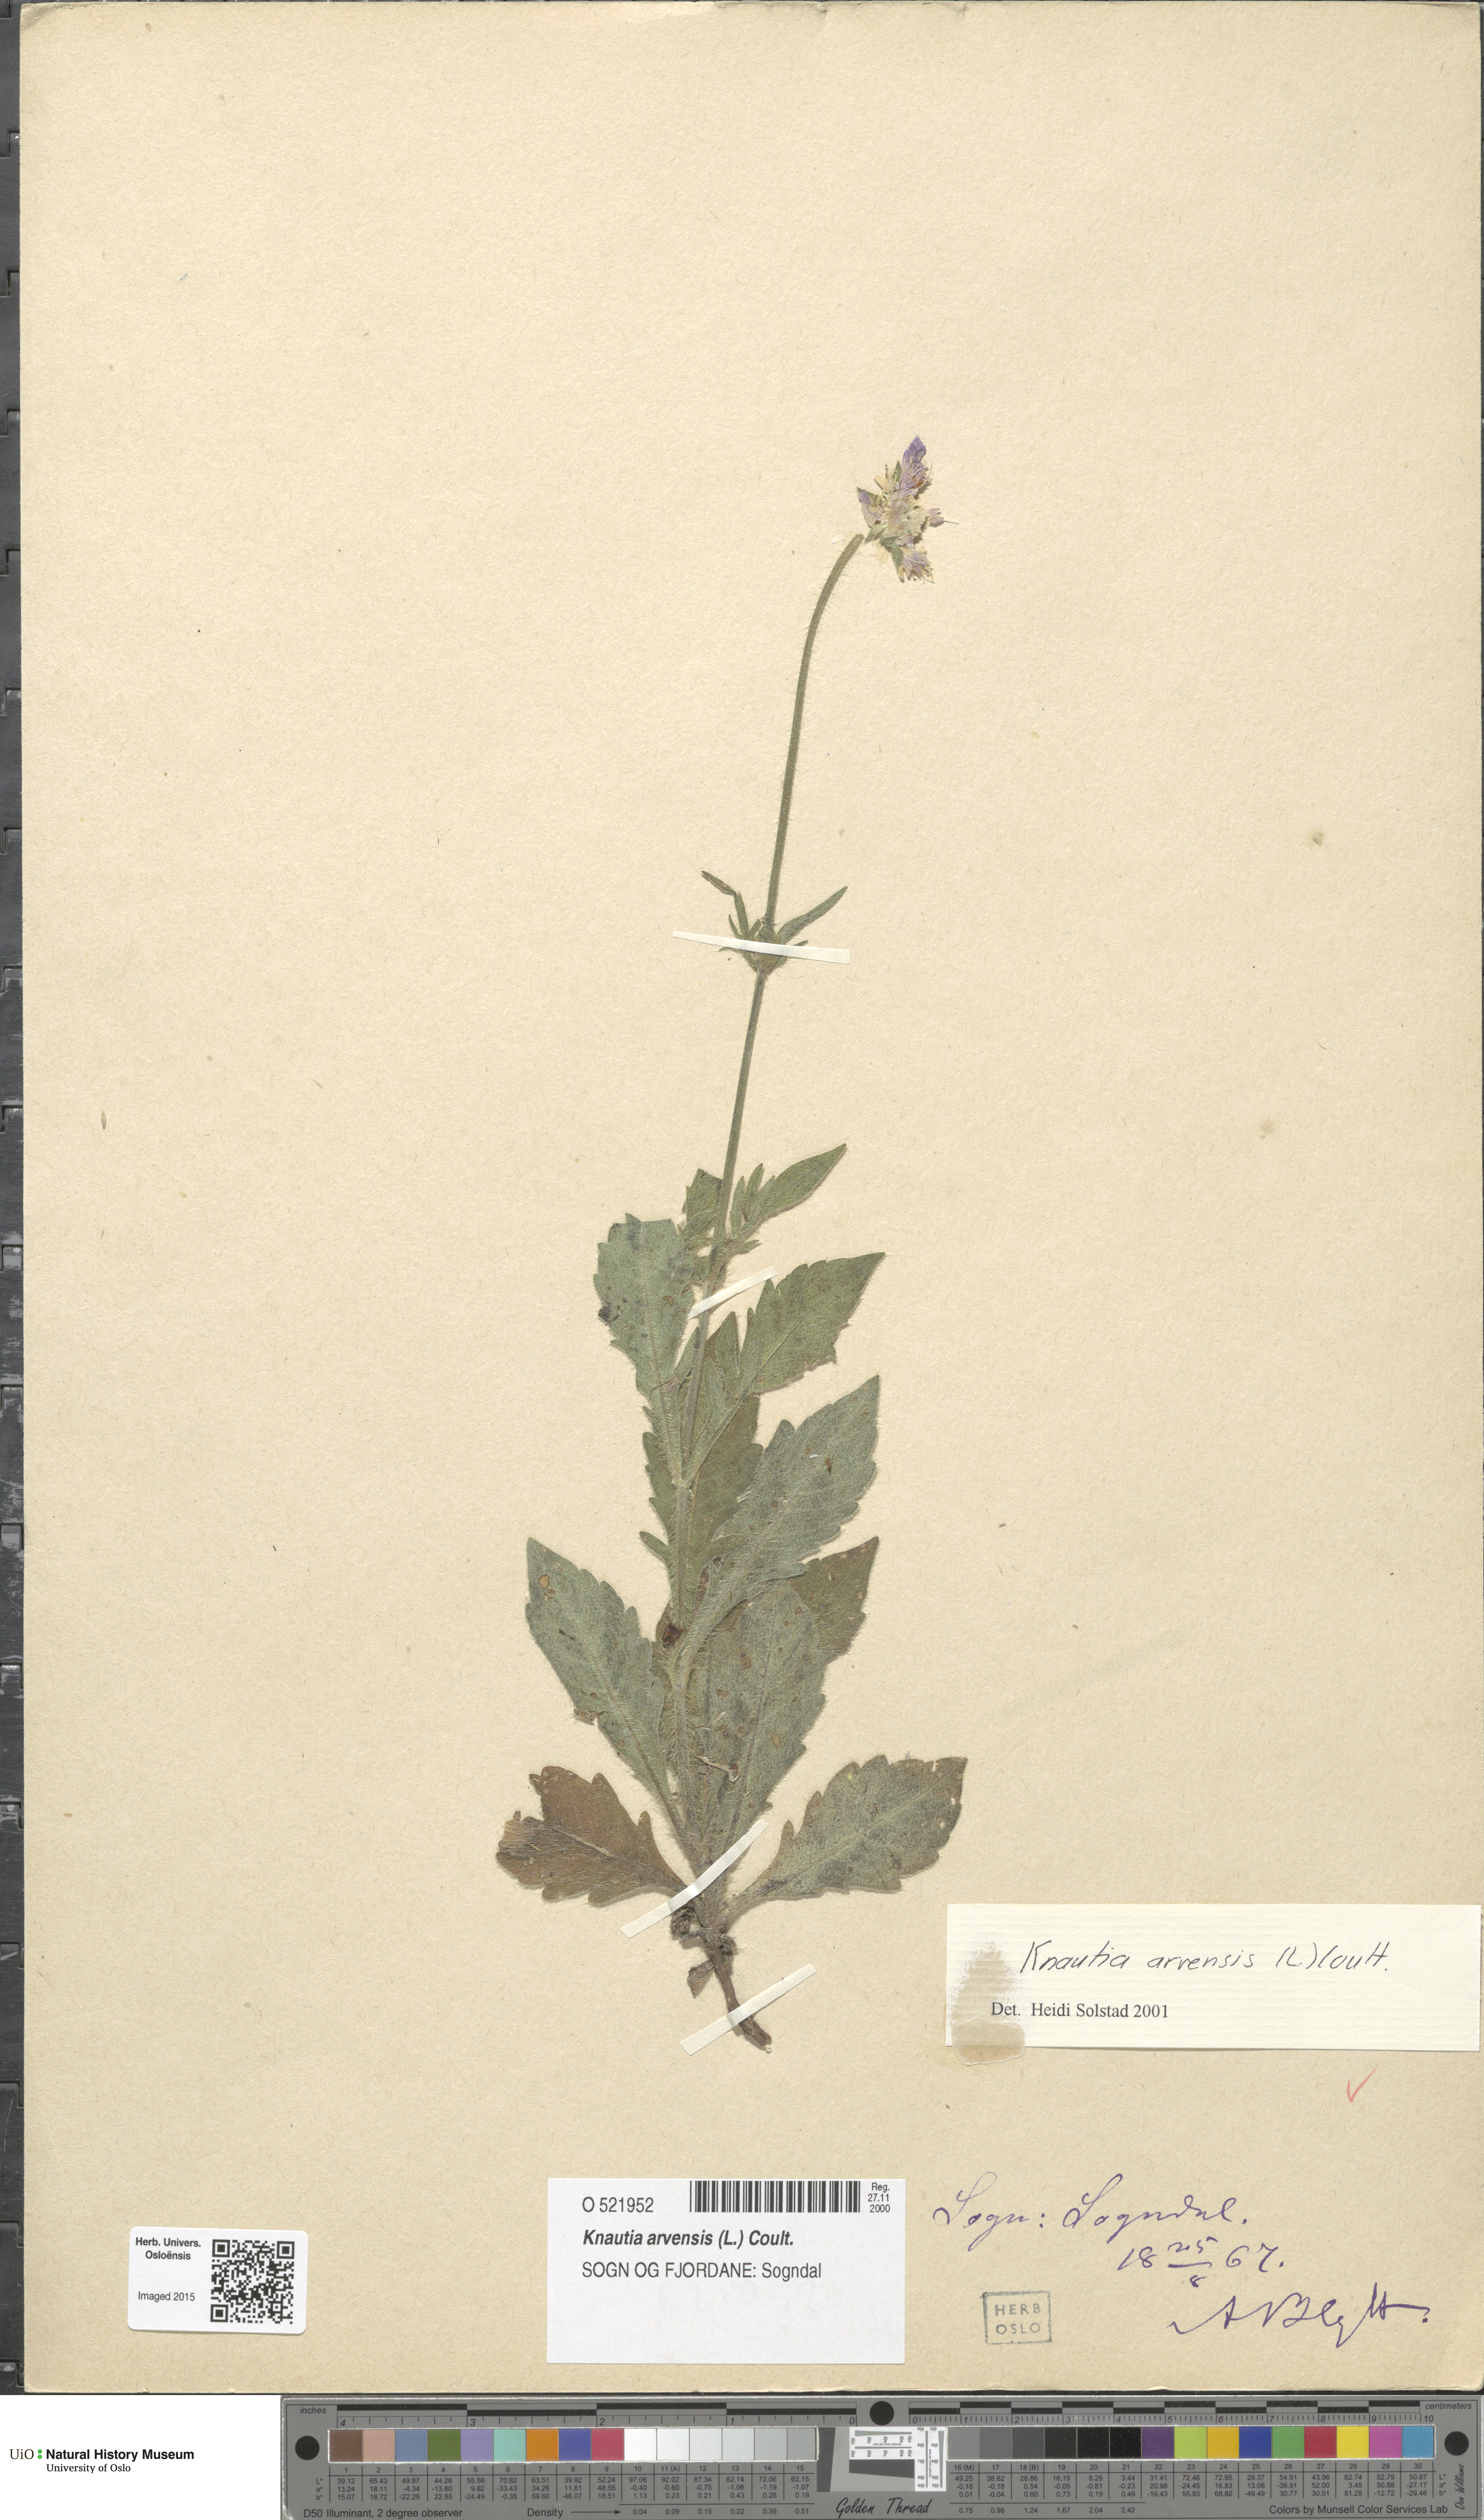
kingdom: Plantae
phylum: Tracheophyta
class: Magnoliopsida
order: Dipsacales
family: Caprifoliaceae
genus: Knautia
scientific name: Knautia arvensis
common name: Field scabiosa
